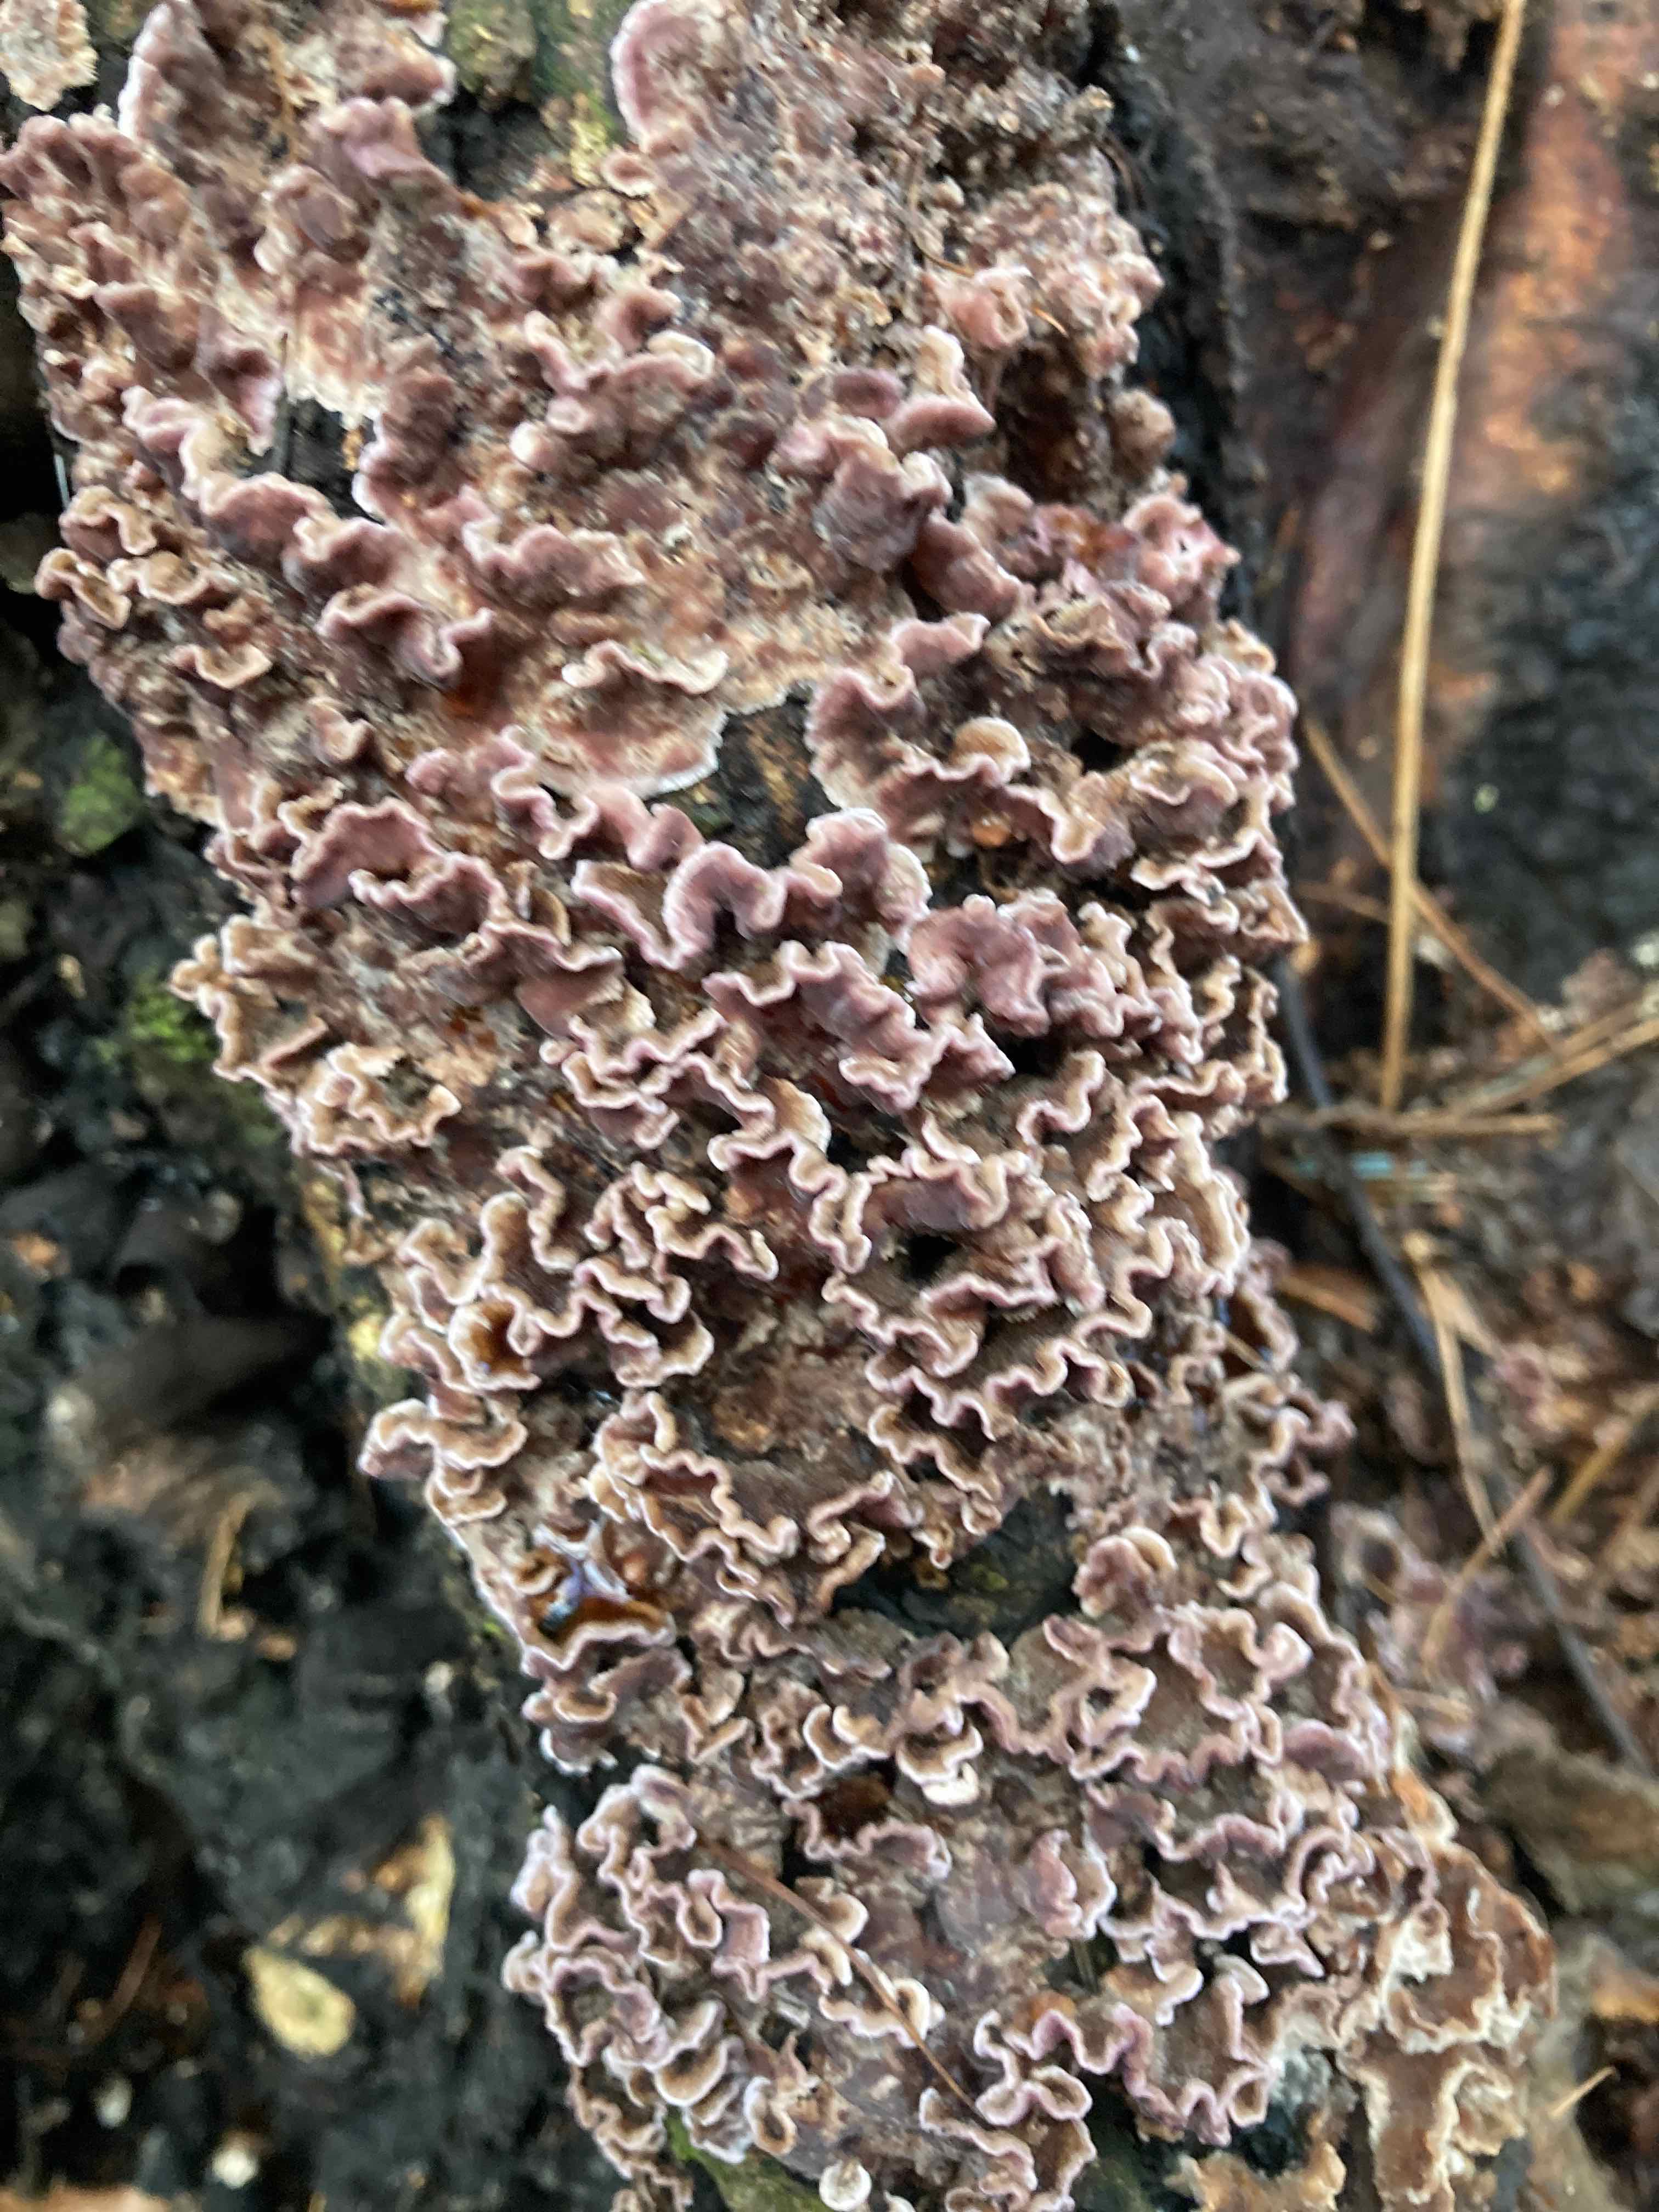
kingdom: Fungi
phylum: Basidiomycota
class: Agaricomycetes
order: Agaricales
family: Cyphellaceae
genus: Chondrostereum
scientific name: Chondrostereum purpureum
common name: purpurlædersvamp
